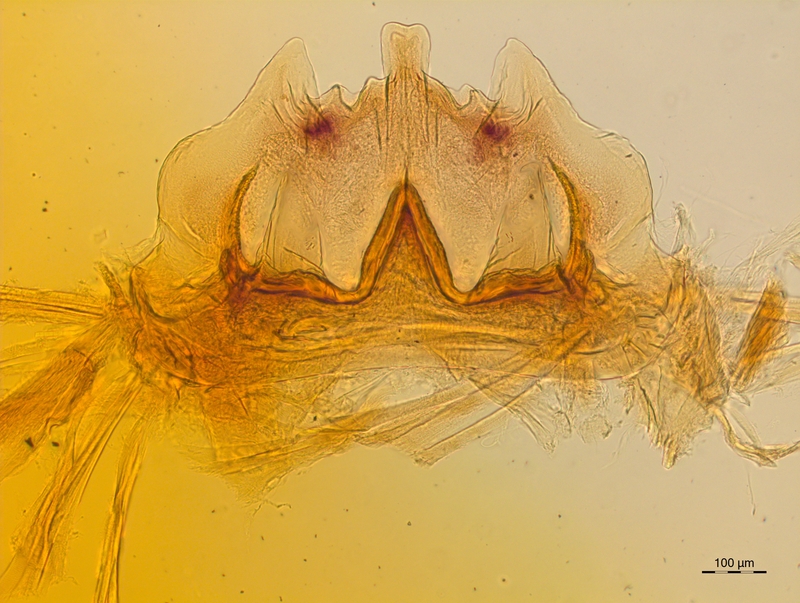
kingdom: Animalia
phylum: Arthropoda
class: Diplopoda
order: Chordeumatida
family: Craspedosomatidae
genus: Craspedosoma
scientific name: Craspedosoma rawlinsii
